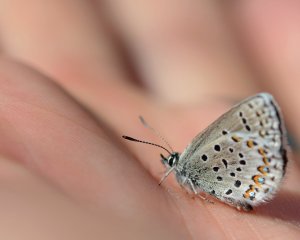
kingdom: Animalia
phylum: Arthropoda
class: Insecta
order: Lepidoptera
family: Lycaenidae
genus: Lycaeides
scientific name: Lycaeides idas
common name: Northern Blue
